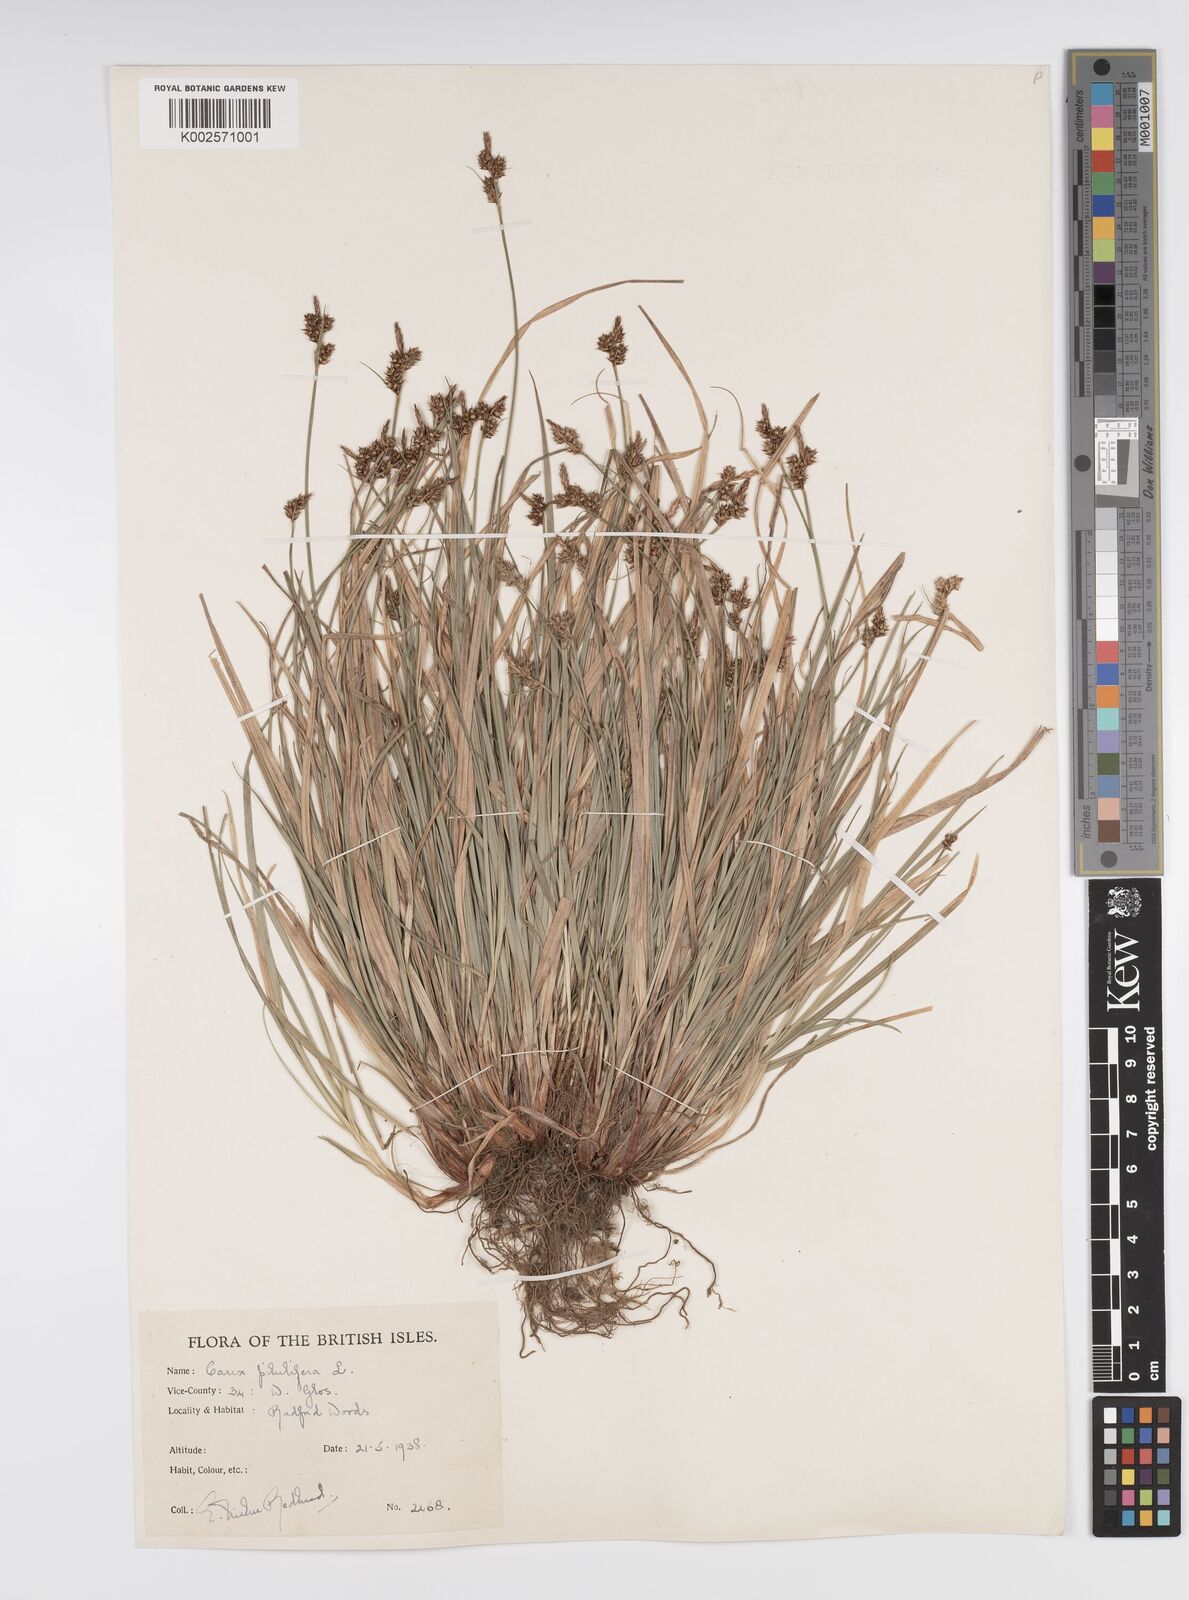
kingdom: Plantae
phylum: Tracheophyta
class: Liliopsida
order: Poales
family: Cyperaceae
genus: Carex
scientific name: Carex praecox
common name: Early sedge
